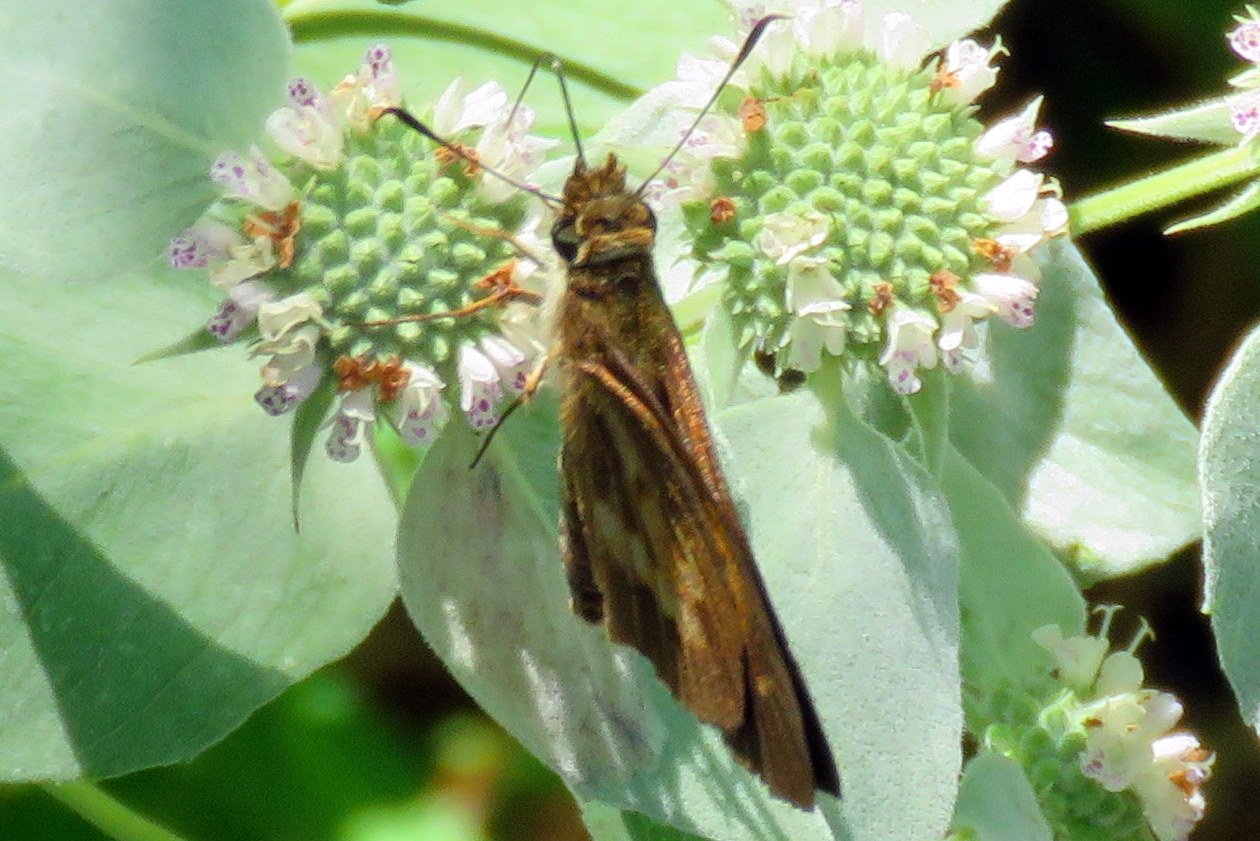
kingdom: Animalia
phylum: Arthropoda
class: Insecta
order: Lepidoptera
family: Hesperiidae
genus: Poanes
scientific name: Poanes viator
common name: Broad-winged Skipper
